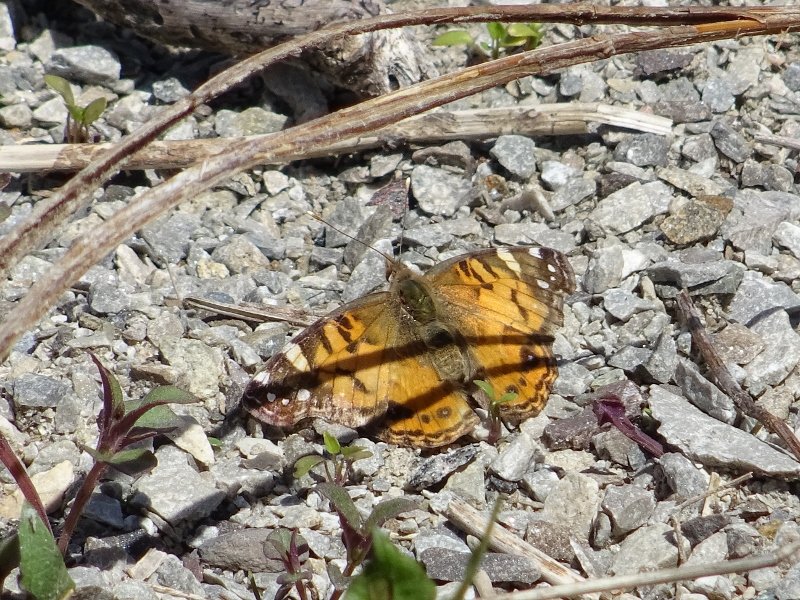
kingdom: Animalia
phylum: Arthropoda
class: Insecta
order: Lepidoptera
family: Nymphalidae
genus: Vanessa
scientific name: Vanessa virginiensis
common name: American Lady
